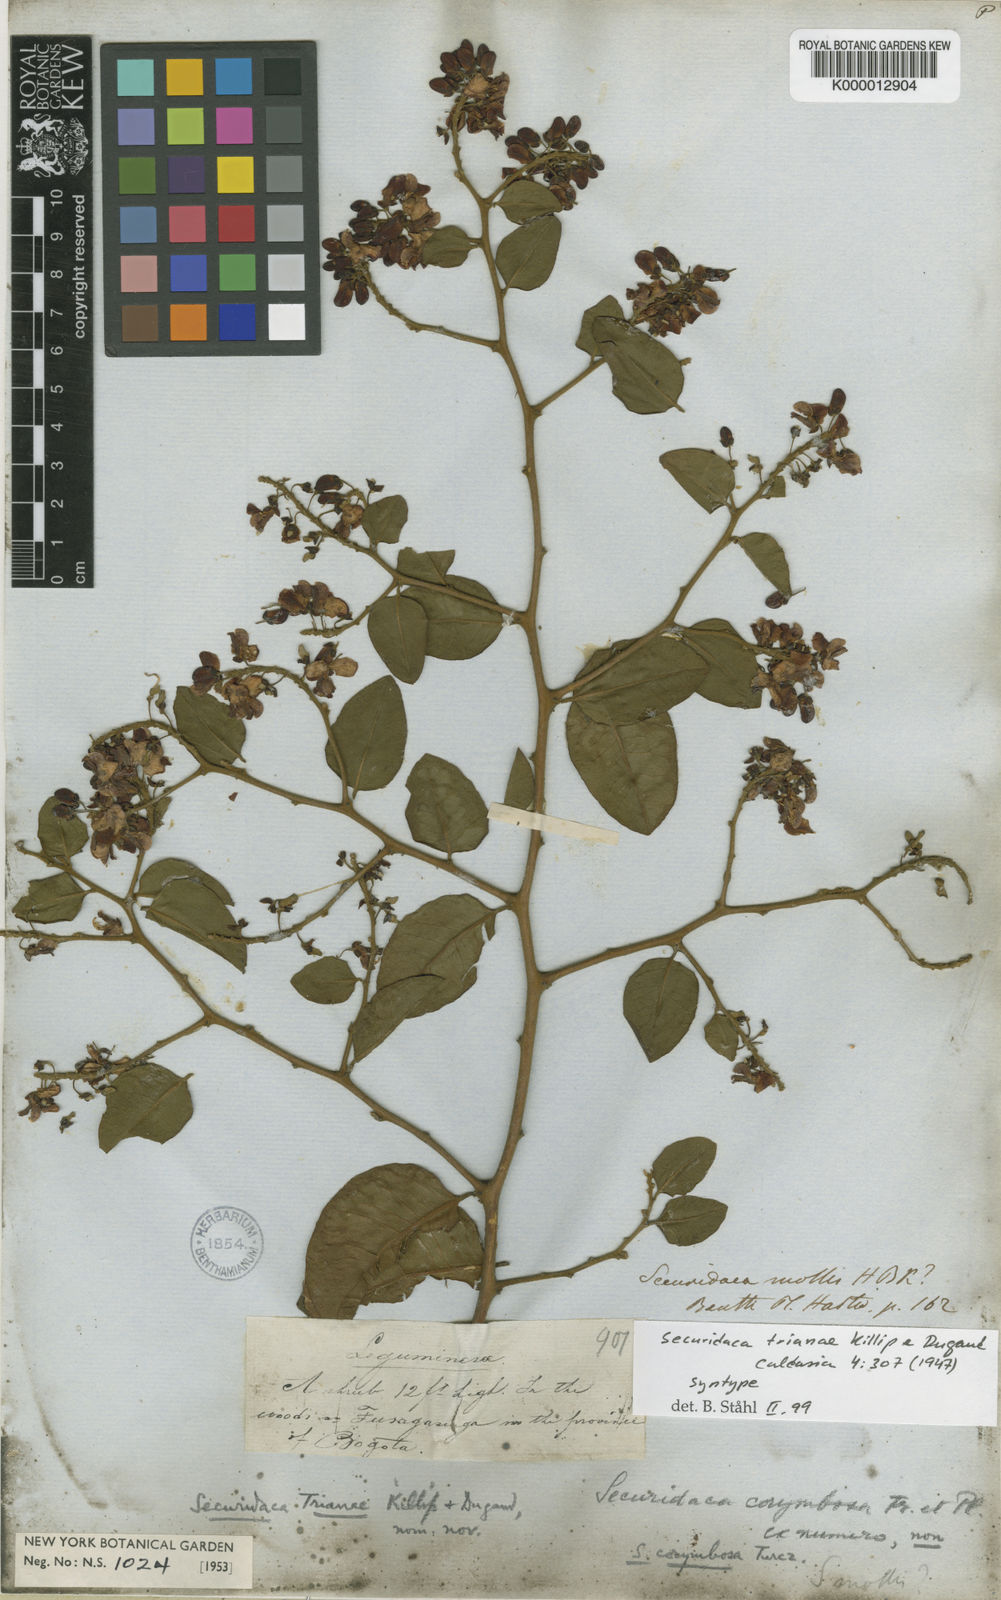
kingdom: Plantae
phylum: Tracheophyta
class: Magnoliopsida
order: Fabales
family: Polygalaceae
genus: Securidaca
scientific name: Securidaca trianae
